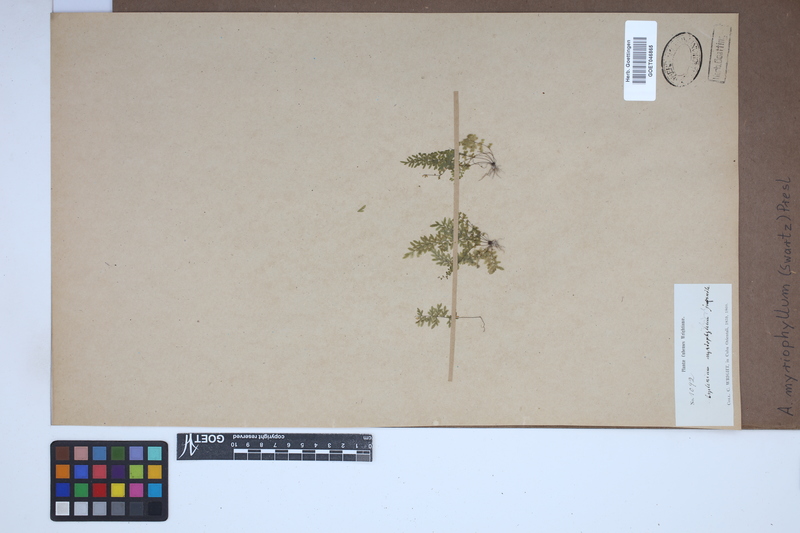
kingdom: Plantae
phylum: Tracheophyta
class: Polypodiopsida
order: Polypodiales
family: Aspleniaceae
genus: Asplenium
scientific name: Asplenium myriophyllum
